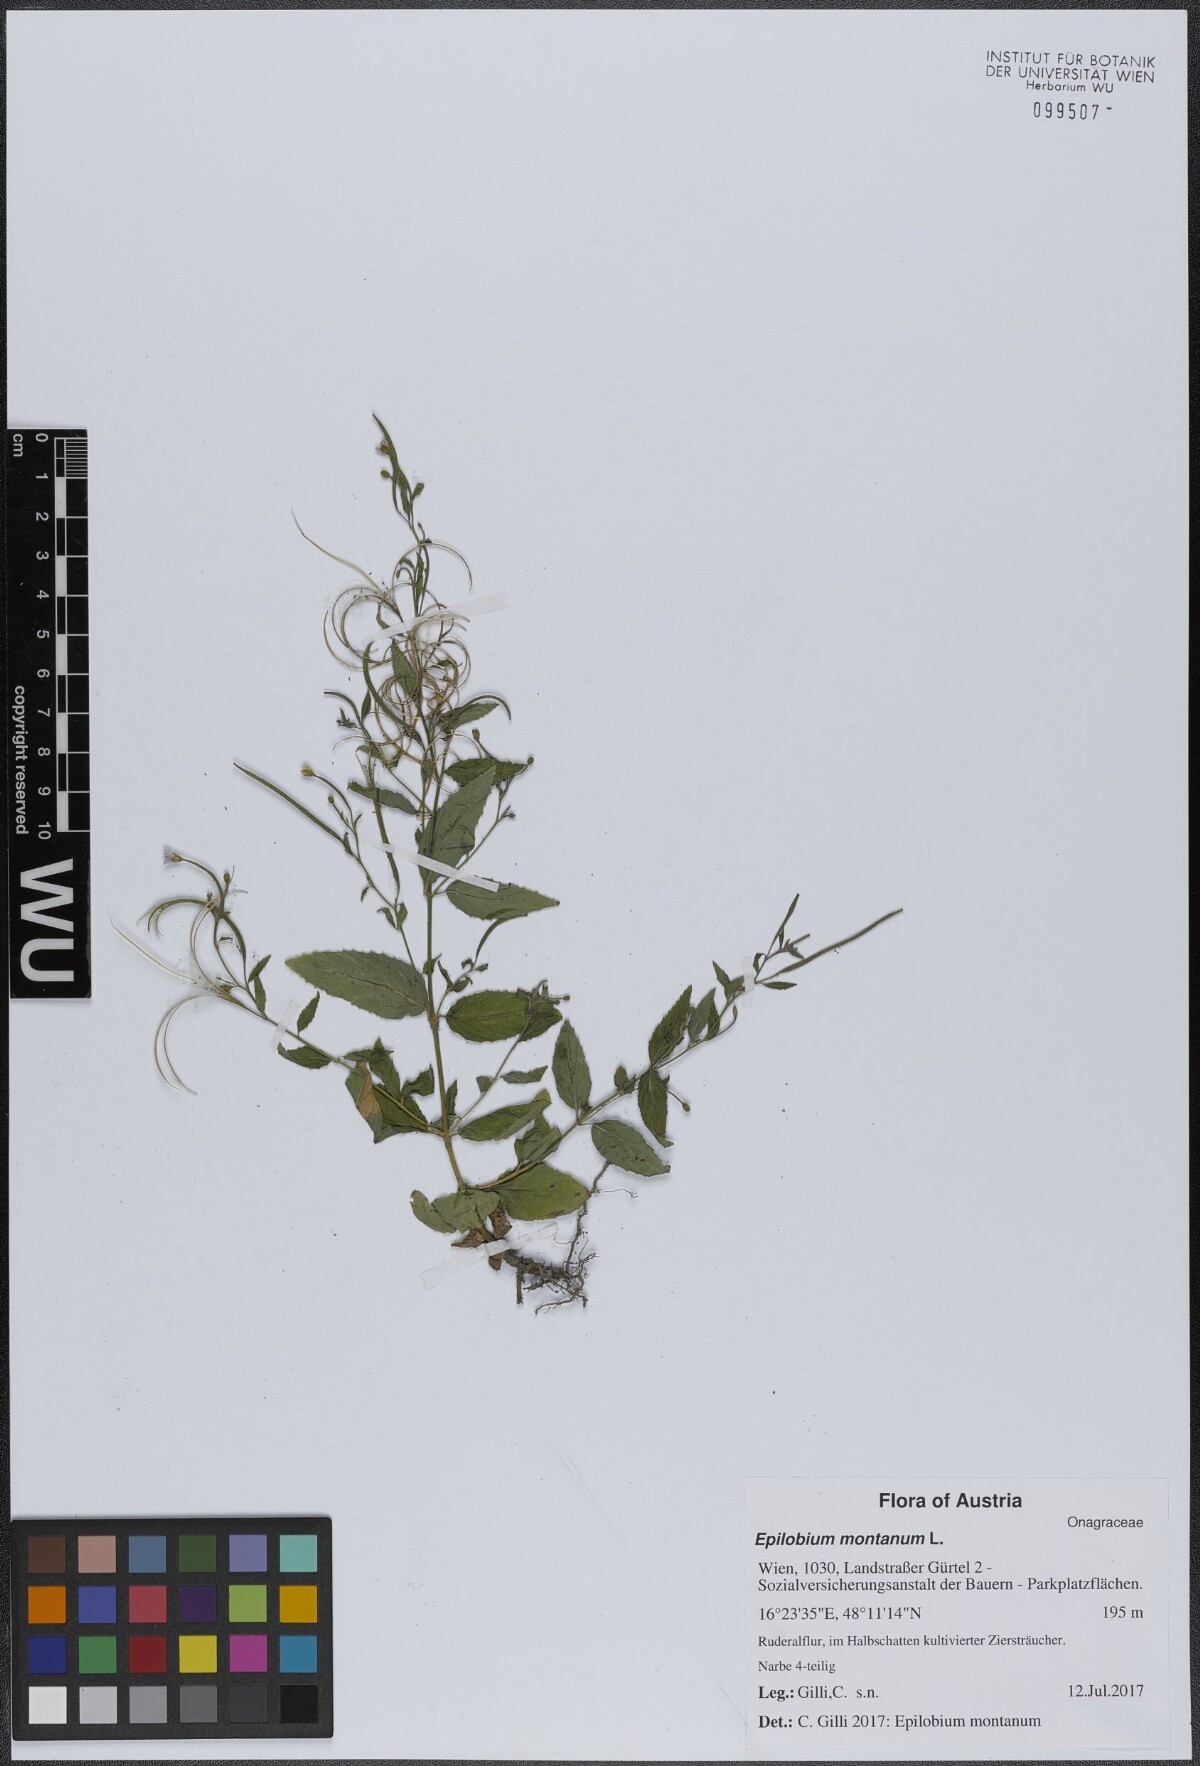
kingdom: Plantae
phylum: Tracheophyta
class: Magnoliopsida
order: Myrtales
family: Onagraceae
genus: Epilobium
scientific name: Epilobium montanum
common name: Broad-leaved willowherb
